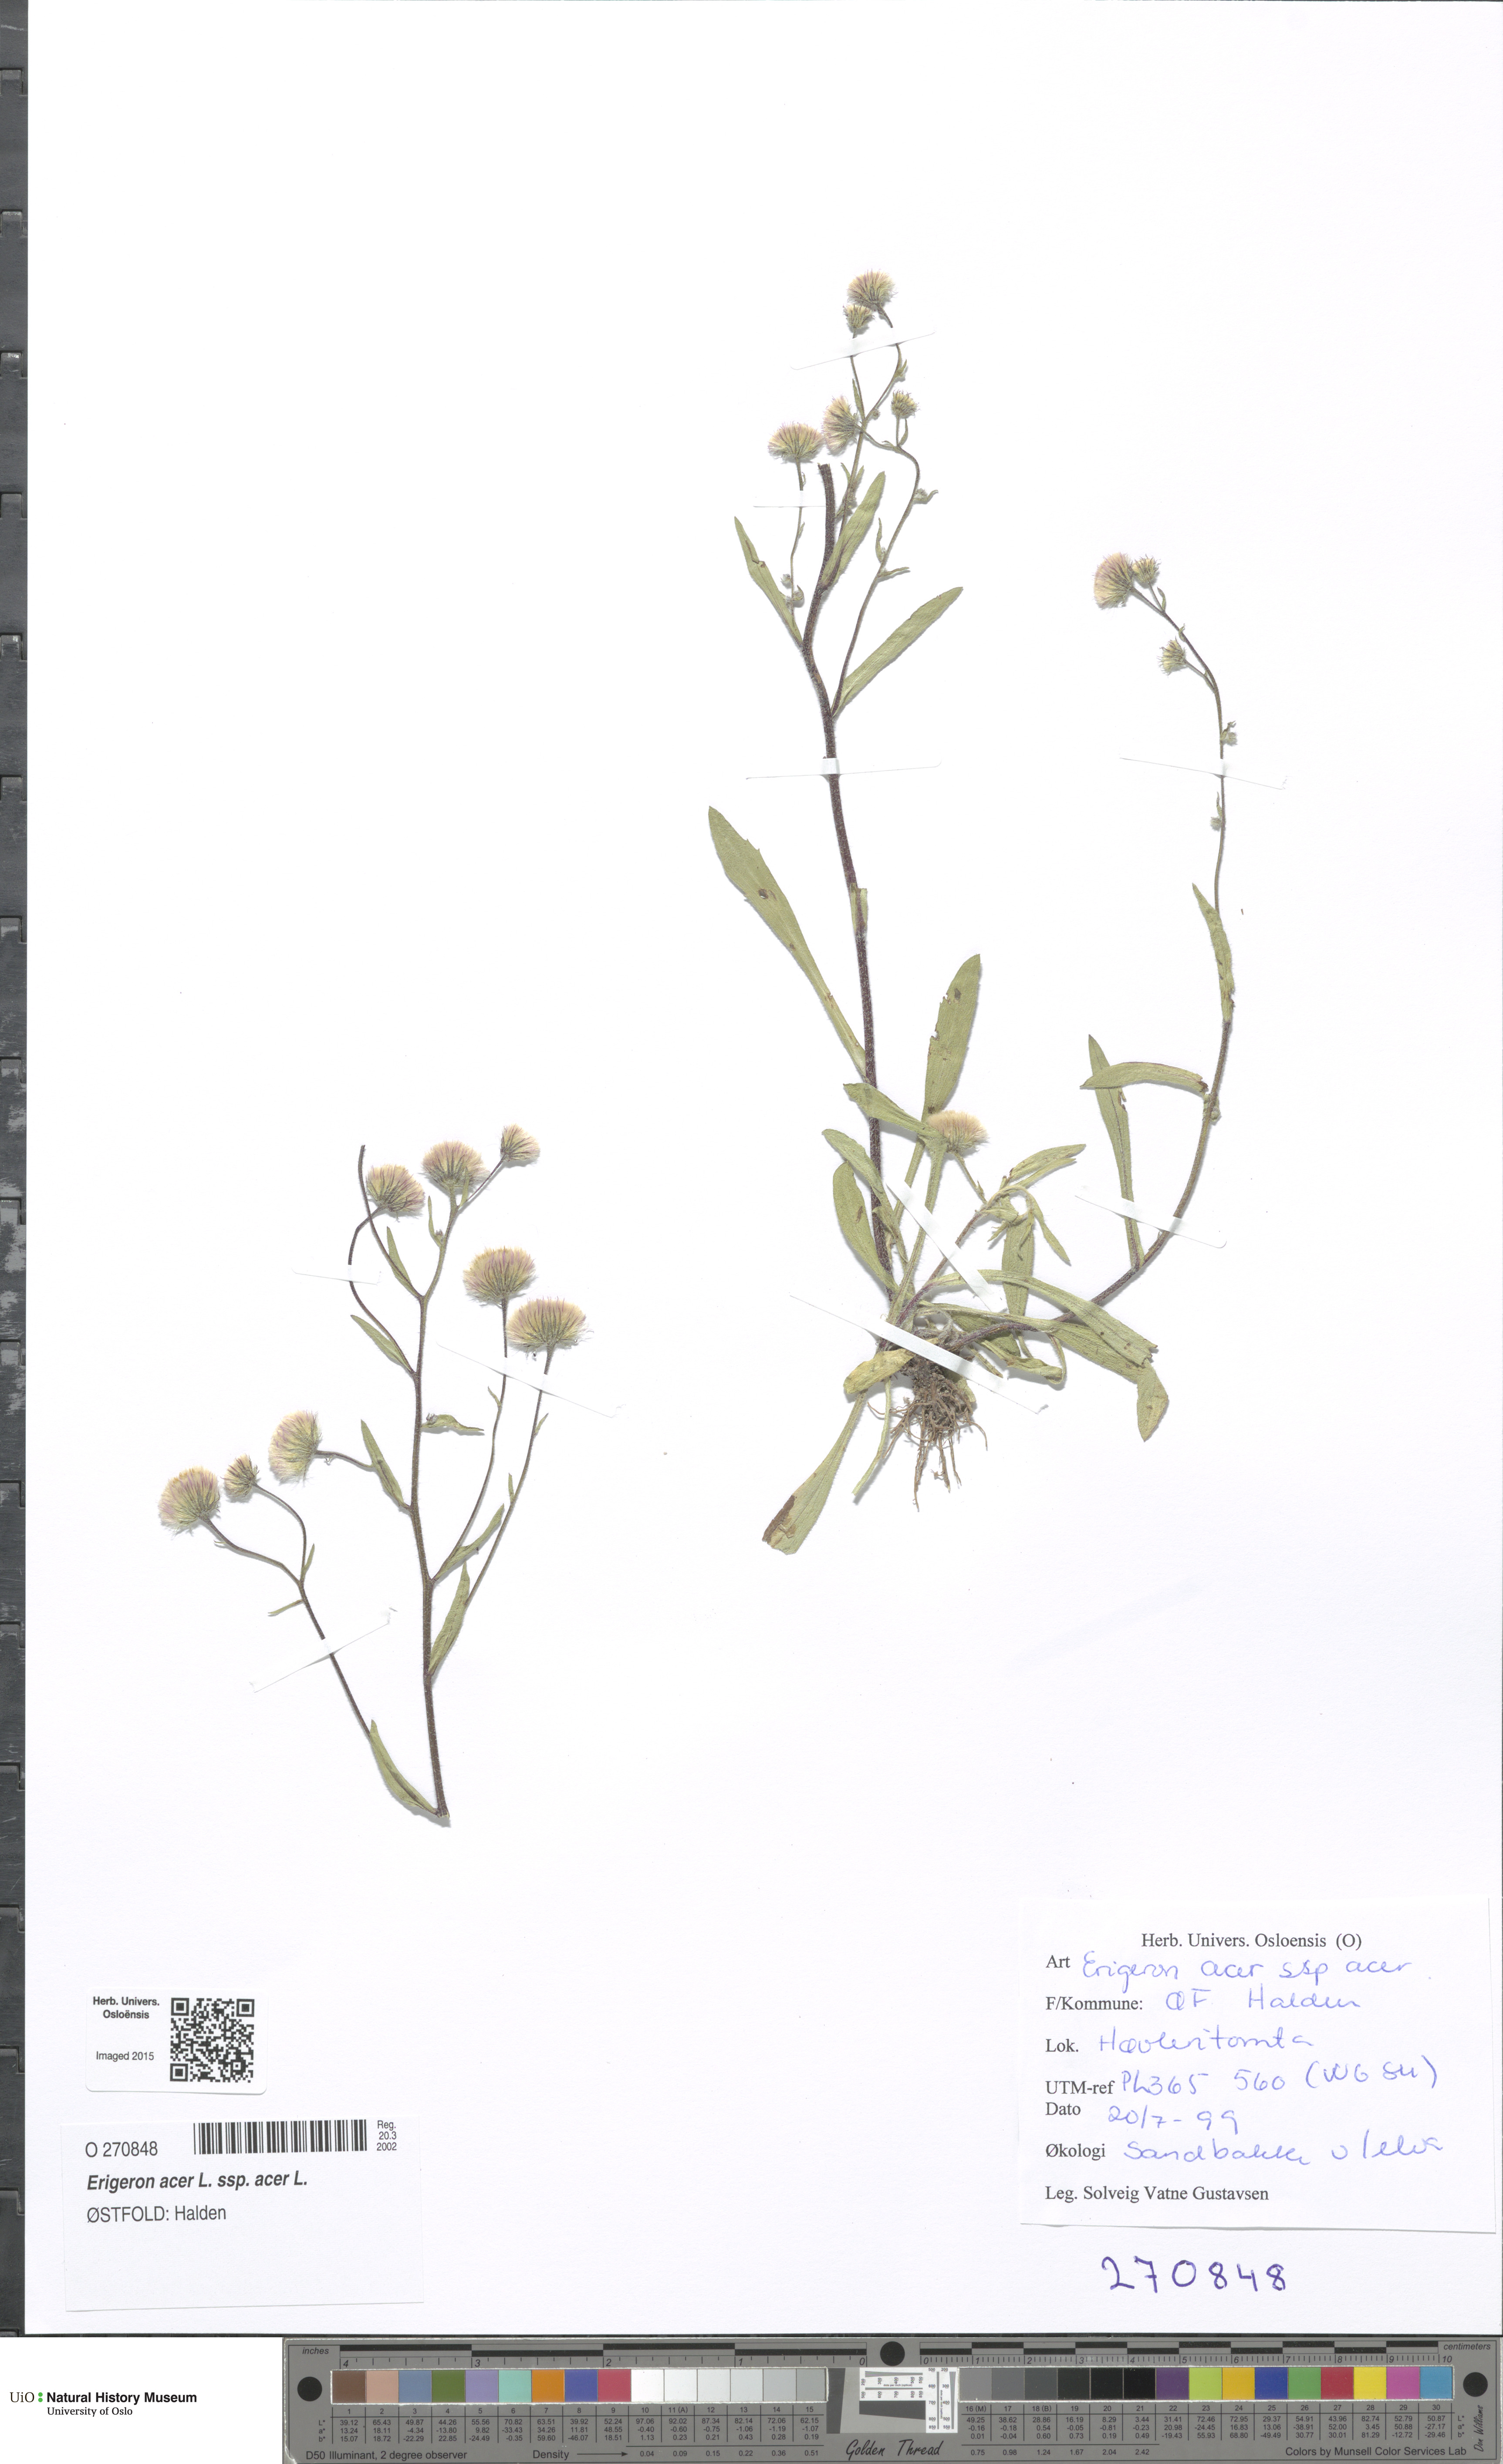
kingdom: Plantae
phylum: Tracheophyta
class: Magnoliopsida
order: Asterales
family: Asteraceae
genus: Erigeron
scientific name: Erigeron acris
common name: Blue fleabane
